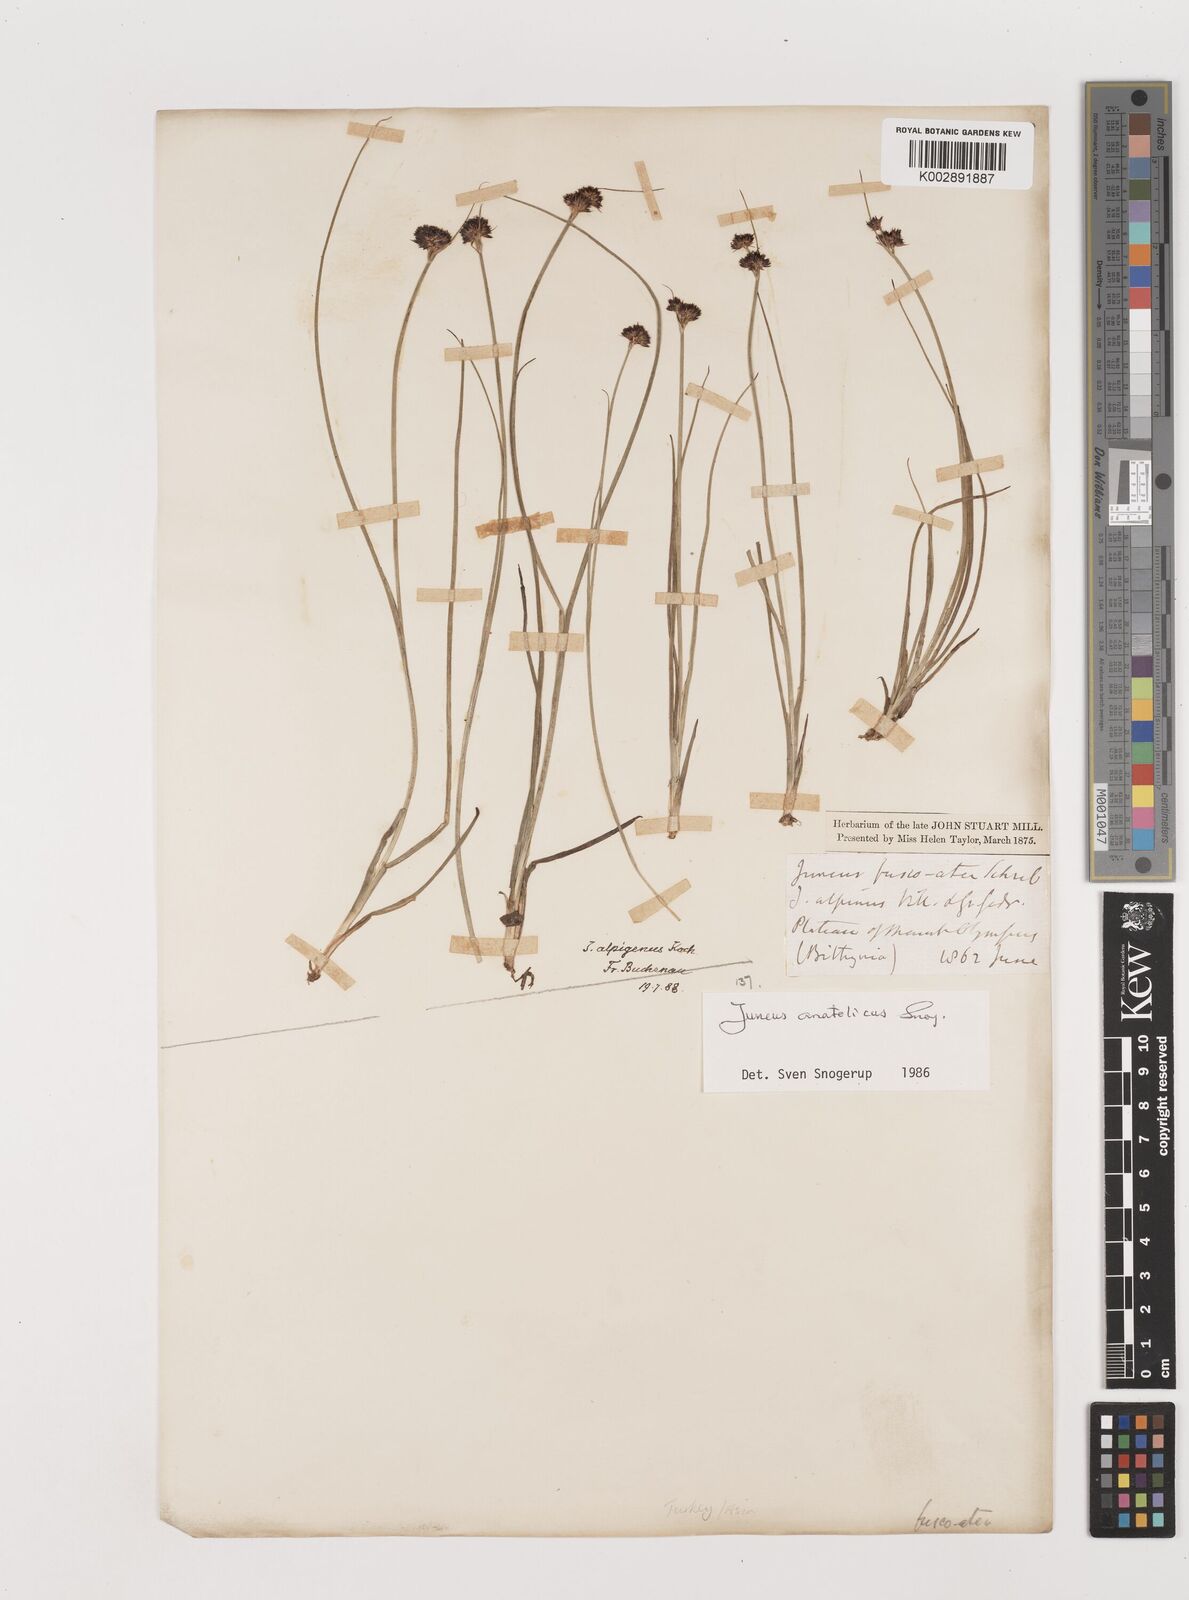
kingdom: Plantae
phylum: Tracheophyta
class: Liliopsida
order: Poales
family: Juncaceae
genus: Juncus
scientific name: Juncus anatolicus
